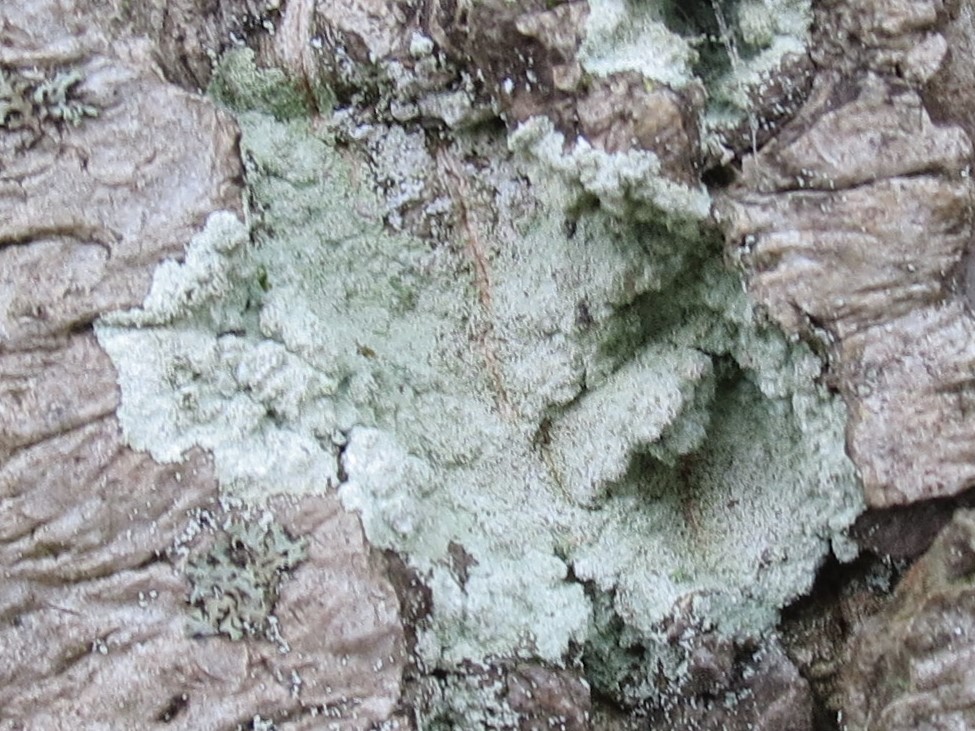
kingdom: Fungi
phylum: Ascomycota
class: Lecanoromycetes
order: Lecanorales
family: Stereocaulaceae
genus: Lepraria
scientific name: Lepraria lobificans
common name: grøn støvlav
